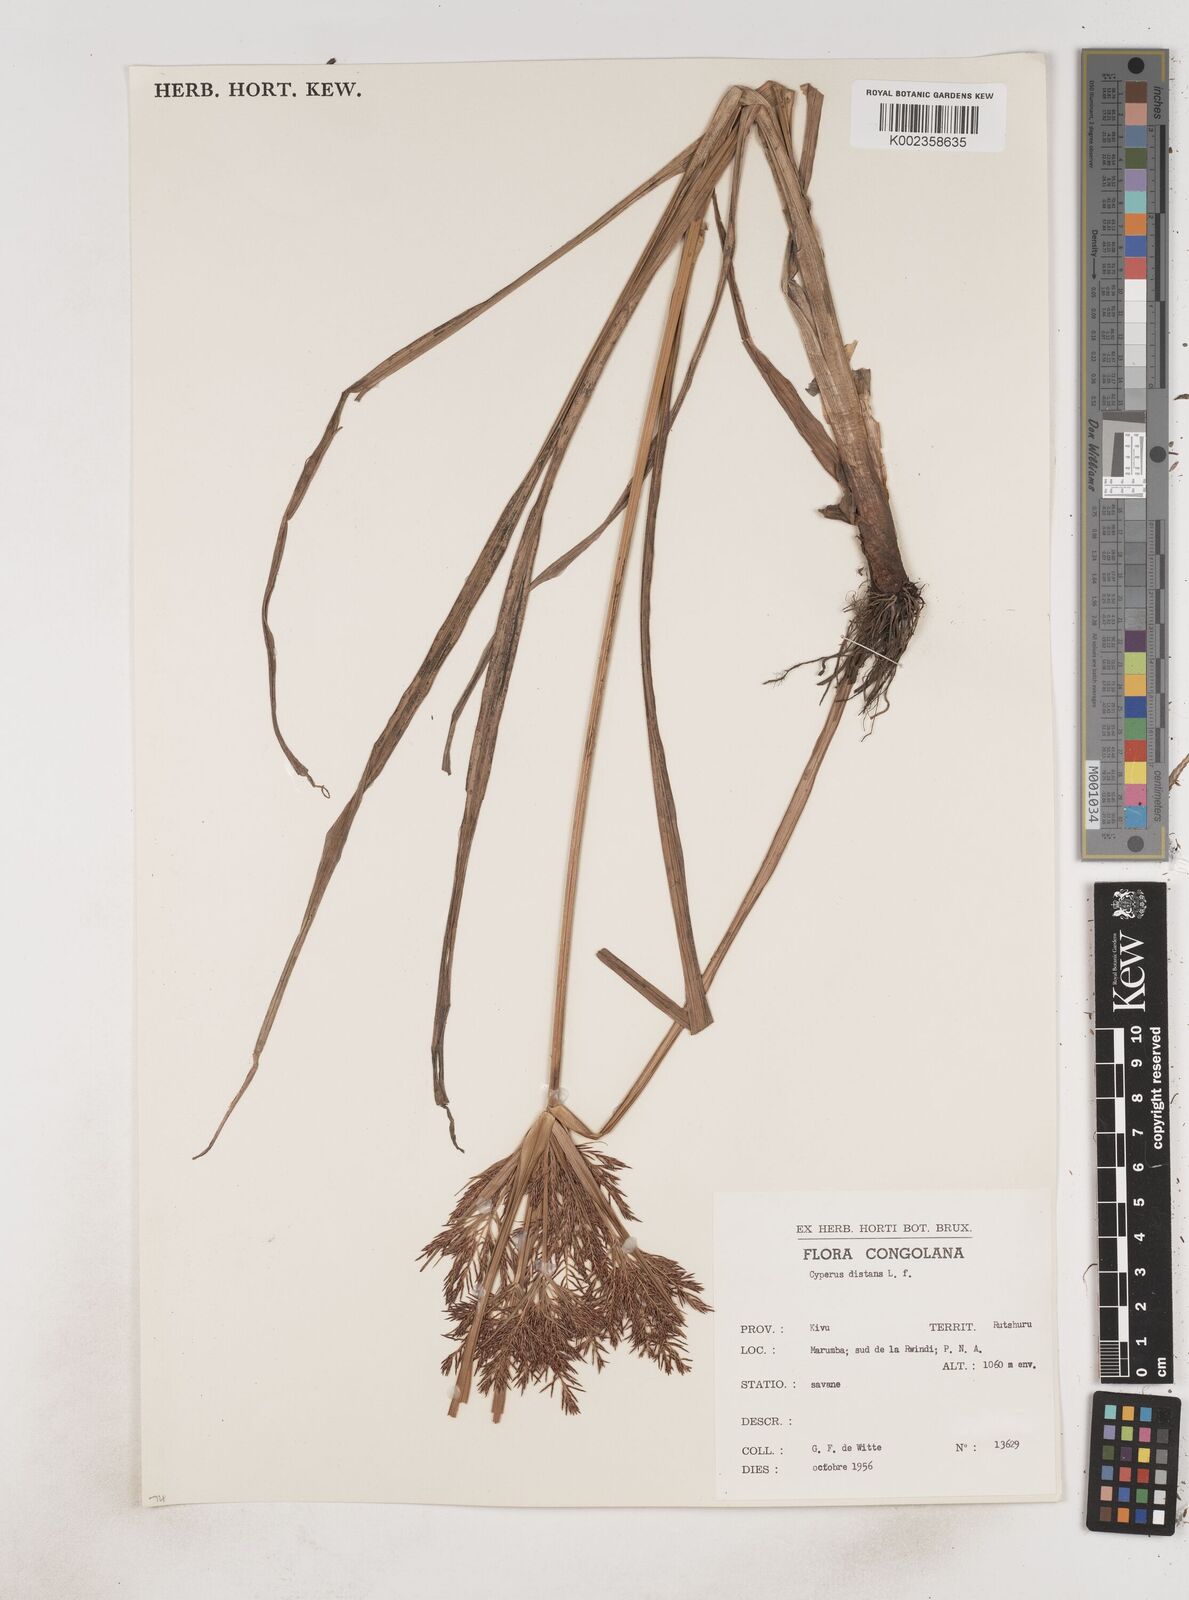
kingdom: Plantae
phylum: Tracheophyta
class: Liliopsida
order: Poales
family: Cyperaceae
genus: Cyperus
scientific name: Cyperus distans
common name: Slender cyperus
